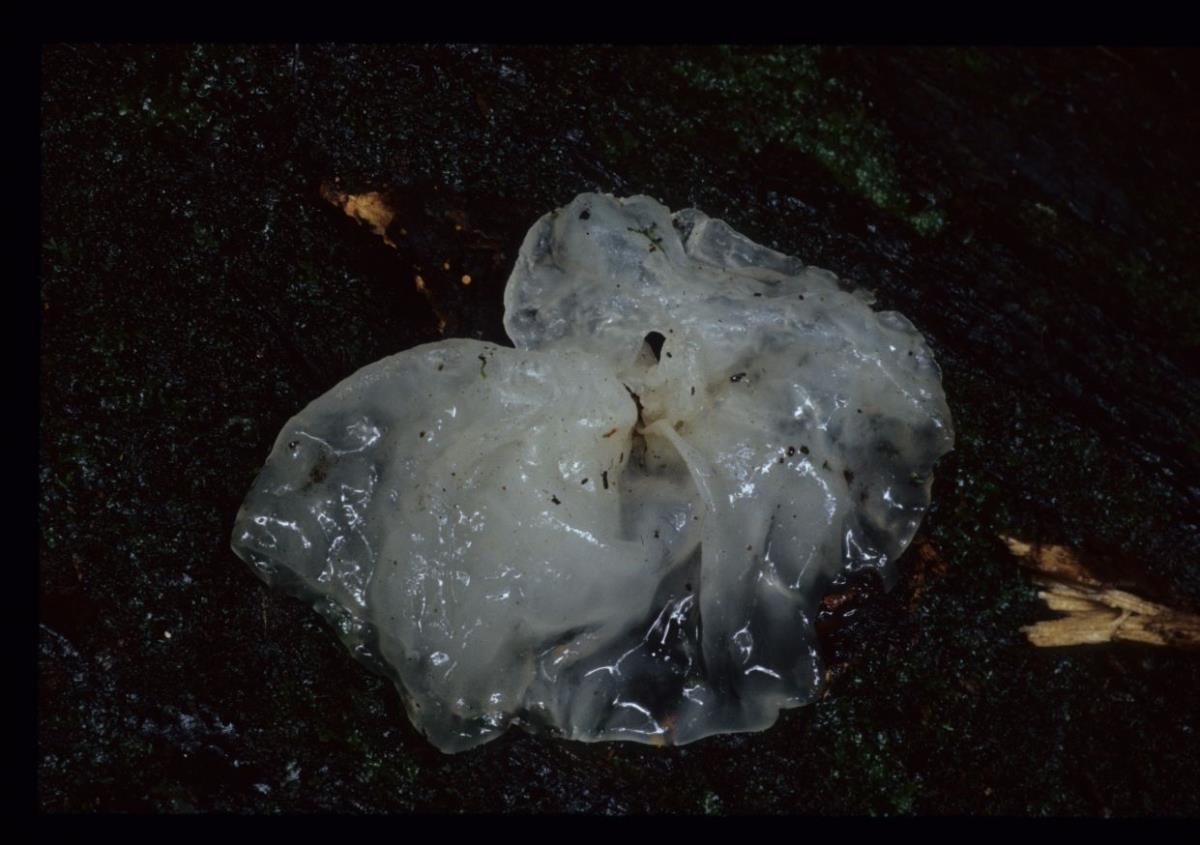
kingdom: Fungi
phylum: Basidiomycota
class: Tremellomycetes
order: Tremellales
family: Tremellaceae
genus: Tremella
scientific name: Tremella
